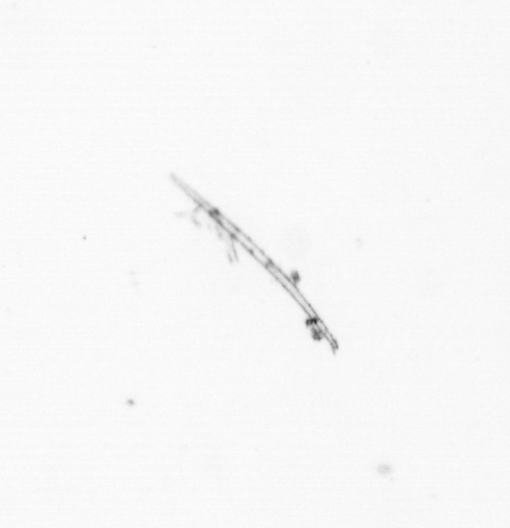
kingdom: Chromista
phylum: Ochrophyta
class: Bacillariophyceae
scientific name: Bacillariophyceae
